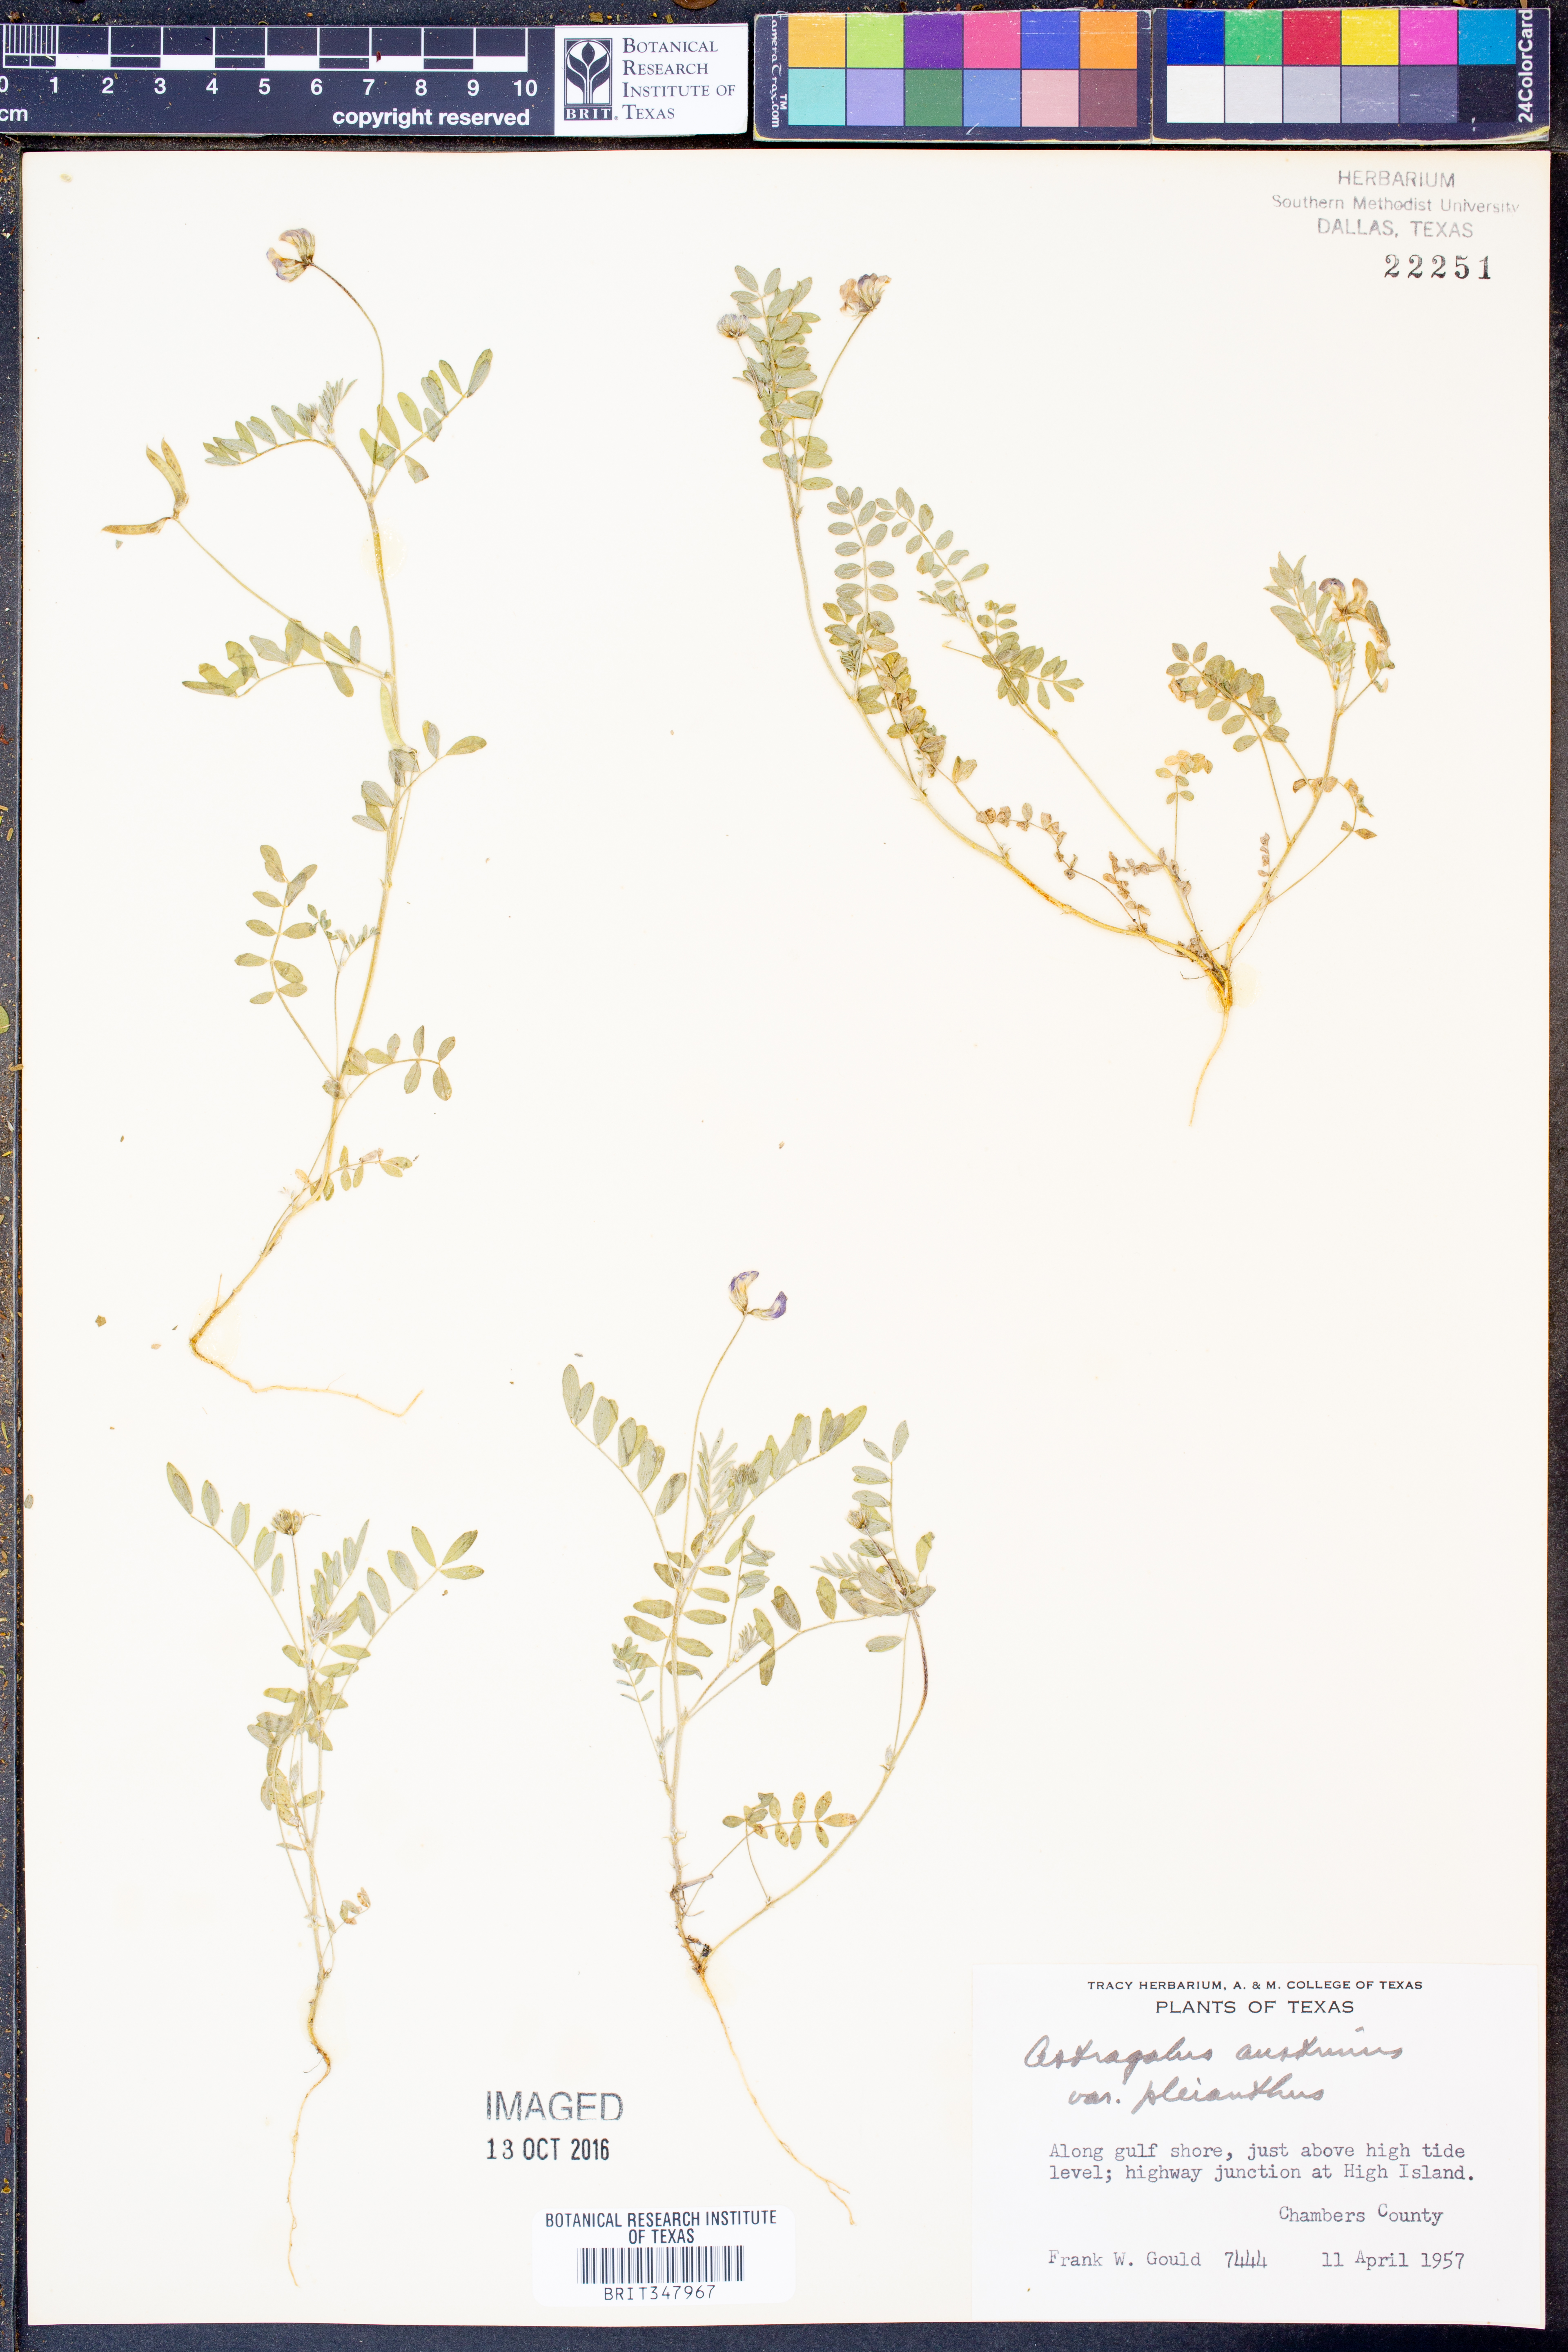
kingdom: Plantae
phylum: Tracheophyta
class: Magnoliopsida
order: Fabales
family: Fabaceae
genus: Astragalus
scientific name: Astragalus pleianthus
